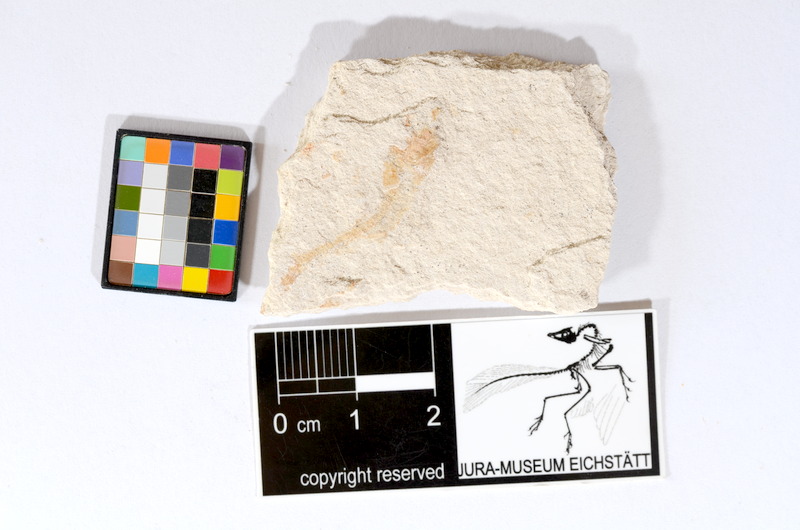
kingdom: Animalia
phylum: Chordata
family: Ascalaboidae
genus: Tharsis
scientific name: Tharsis dubius
